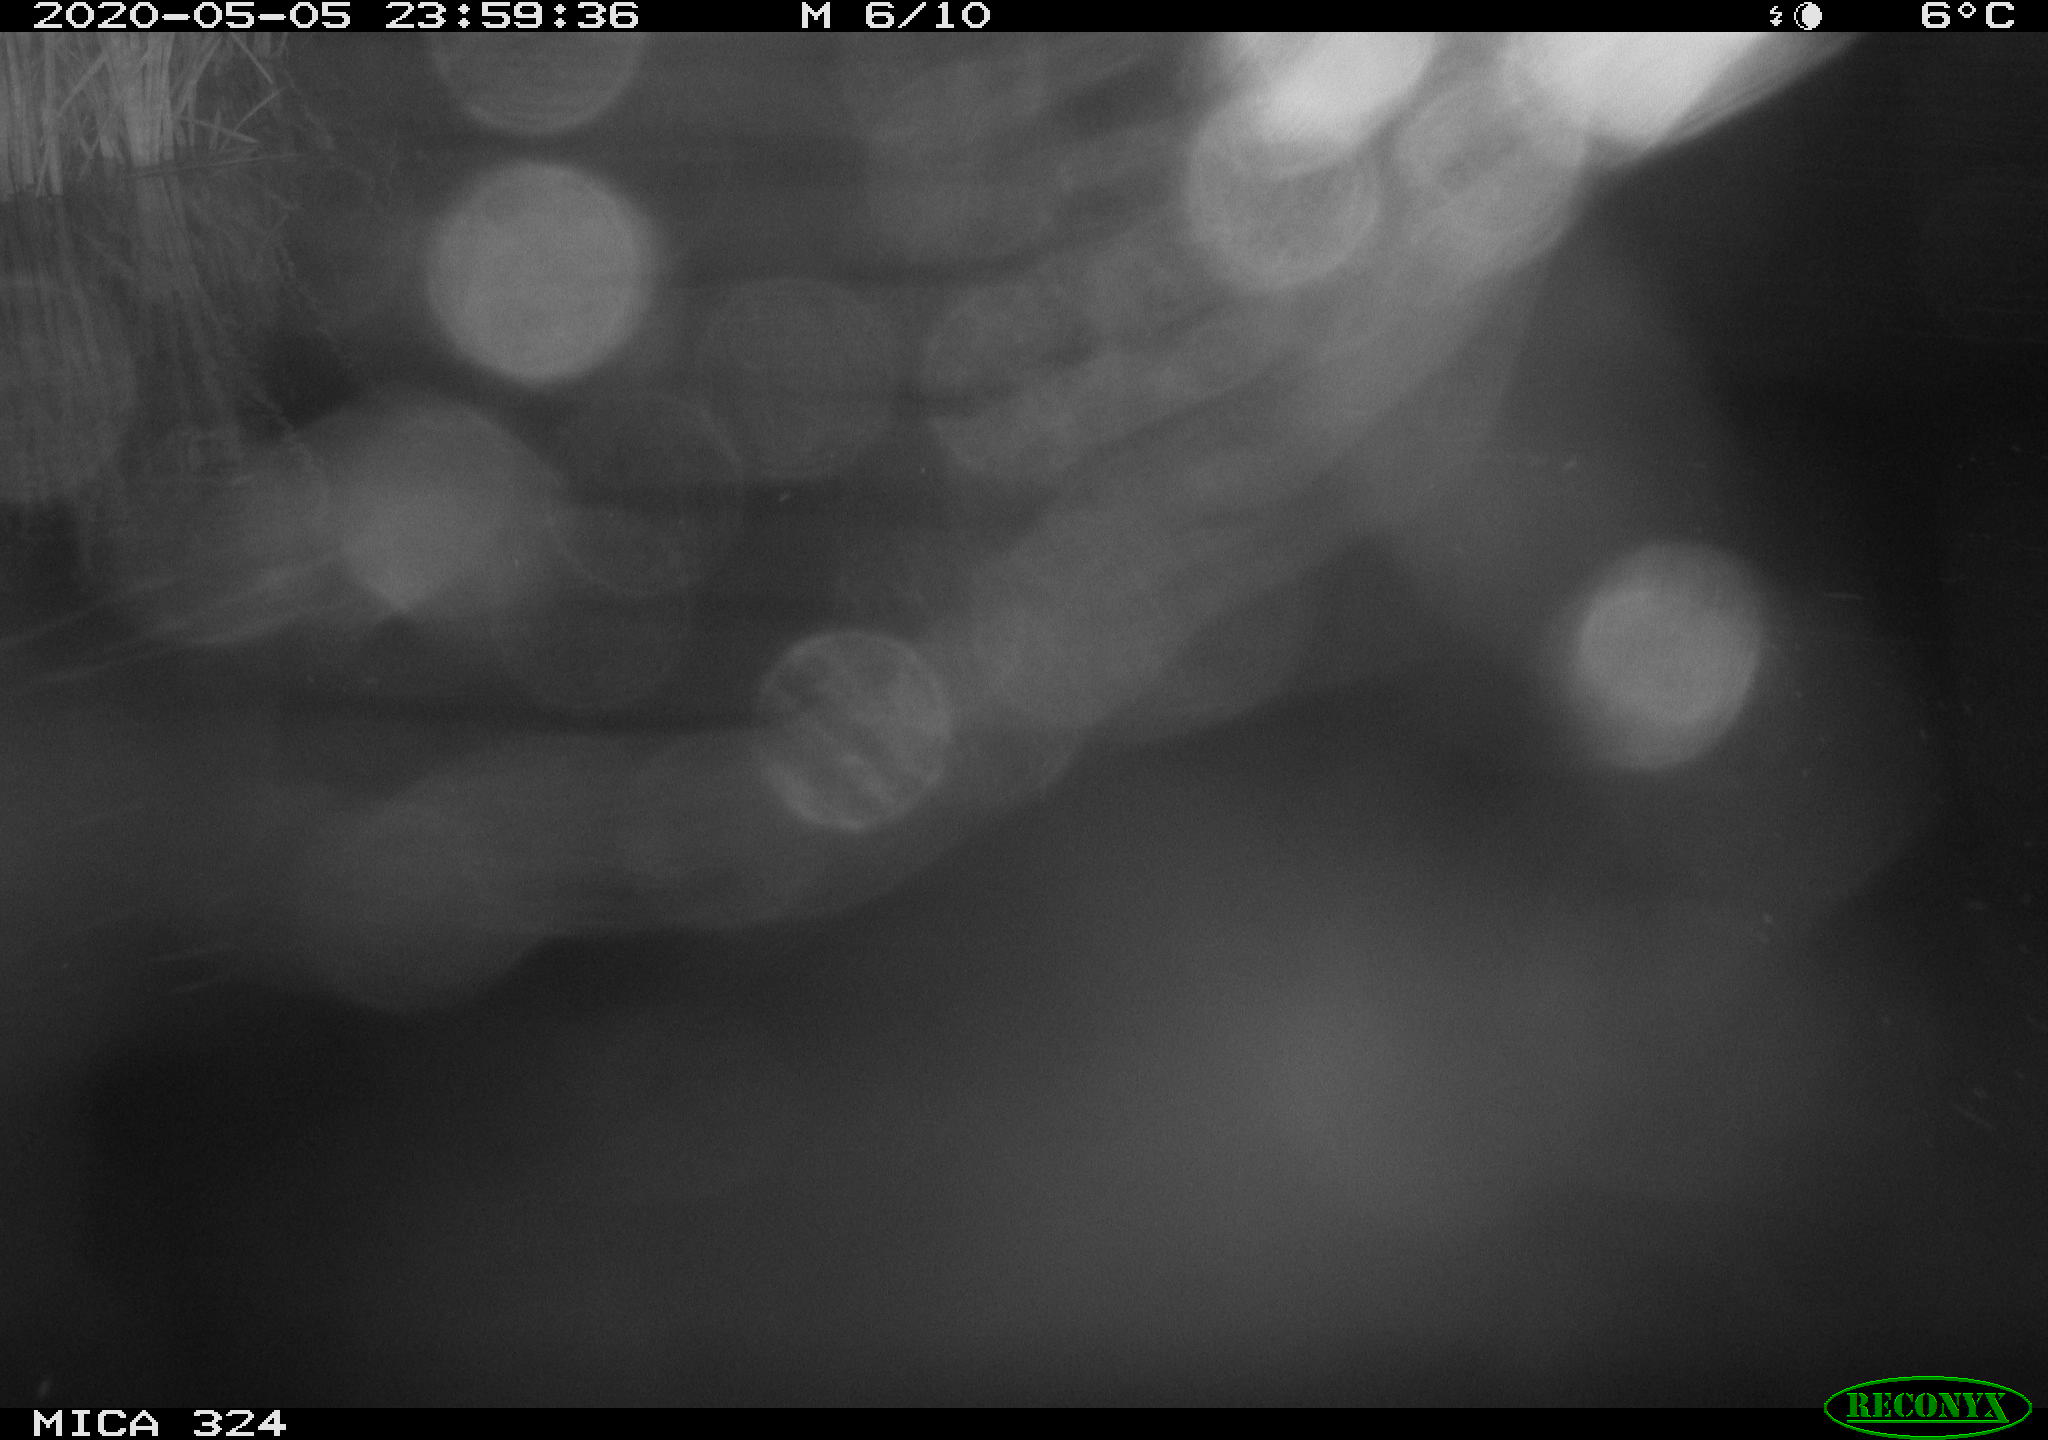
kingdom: Animalia
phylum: Chordata
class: Mammalia
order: Rodentia
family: Muridae
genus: Rattus
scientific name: Rattus norvegicus
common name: Brown rat
